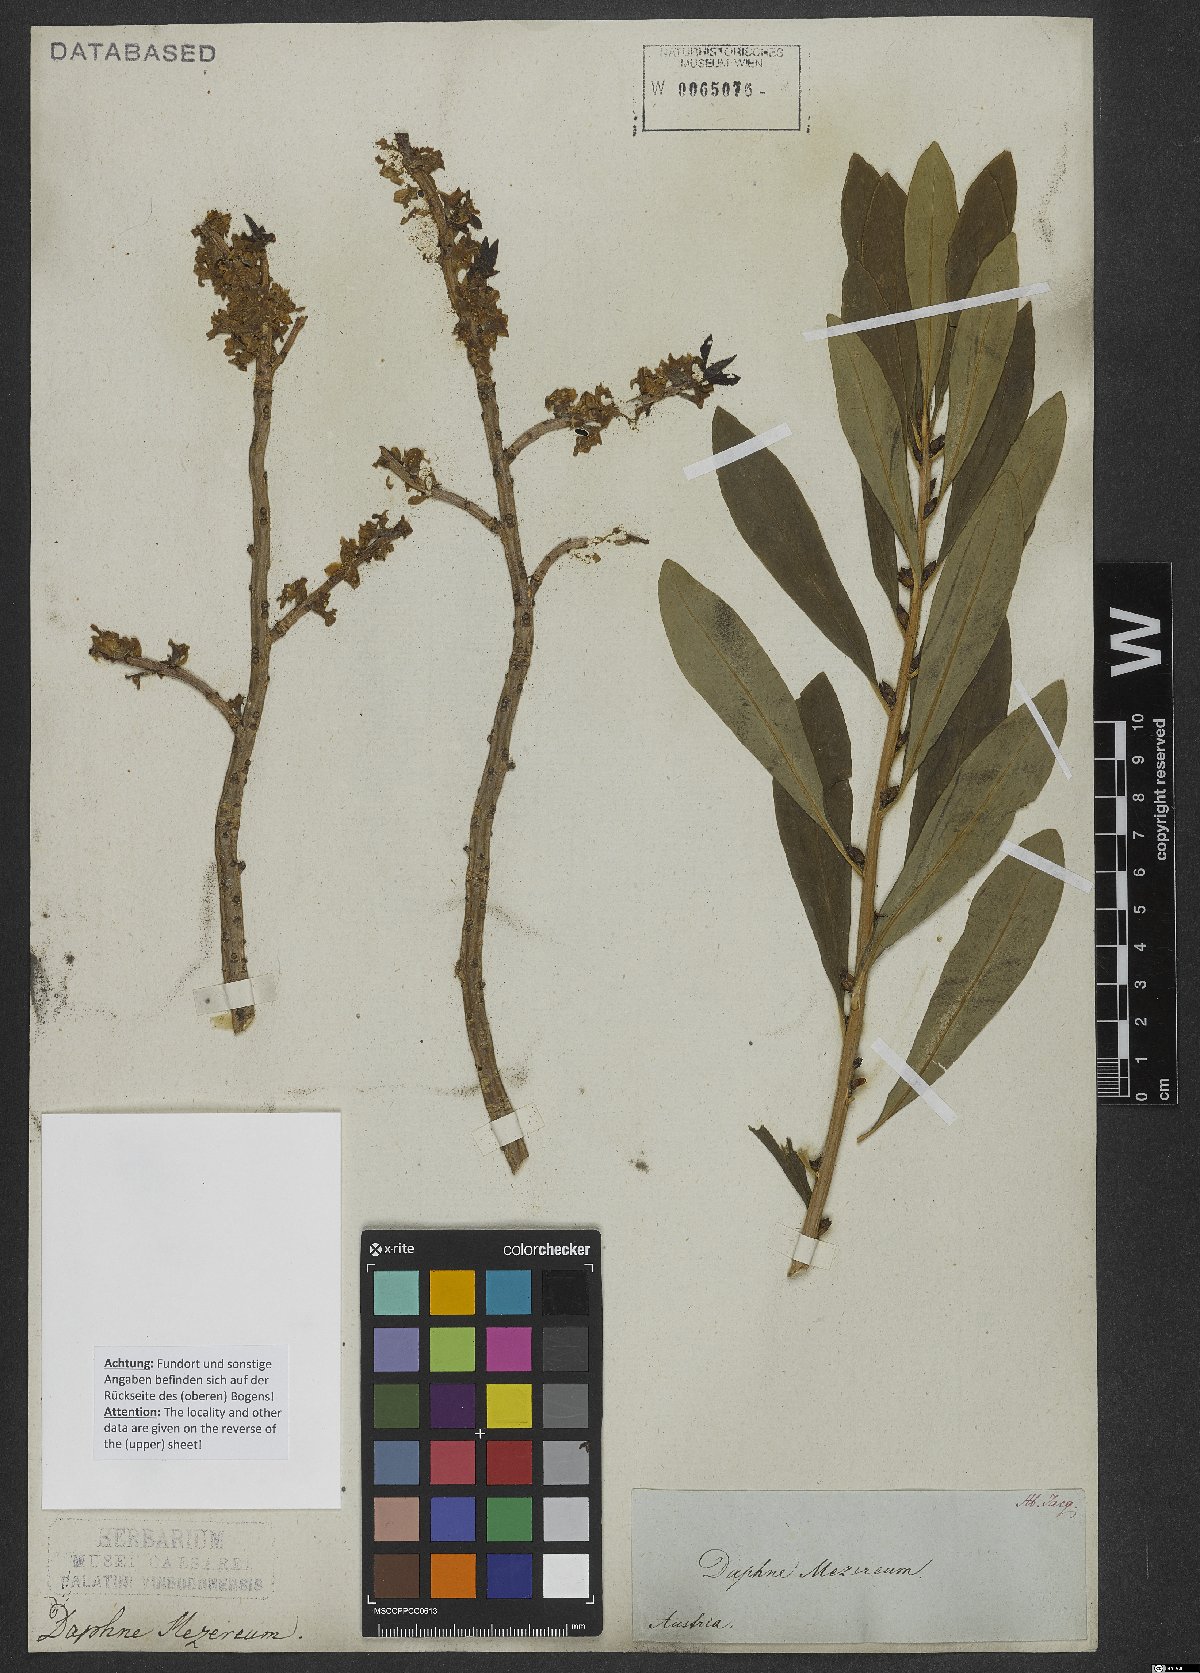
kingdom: Plantae
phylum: Tracheophyta
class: Magnoliopsida
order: Malvales
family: Thymelaeaceae
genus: Daphne
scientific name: Daphne mezereum
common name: Mezereon
